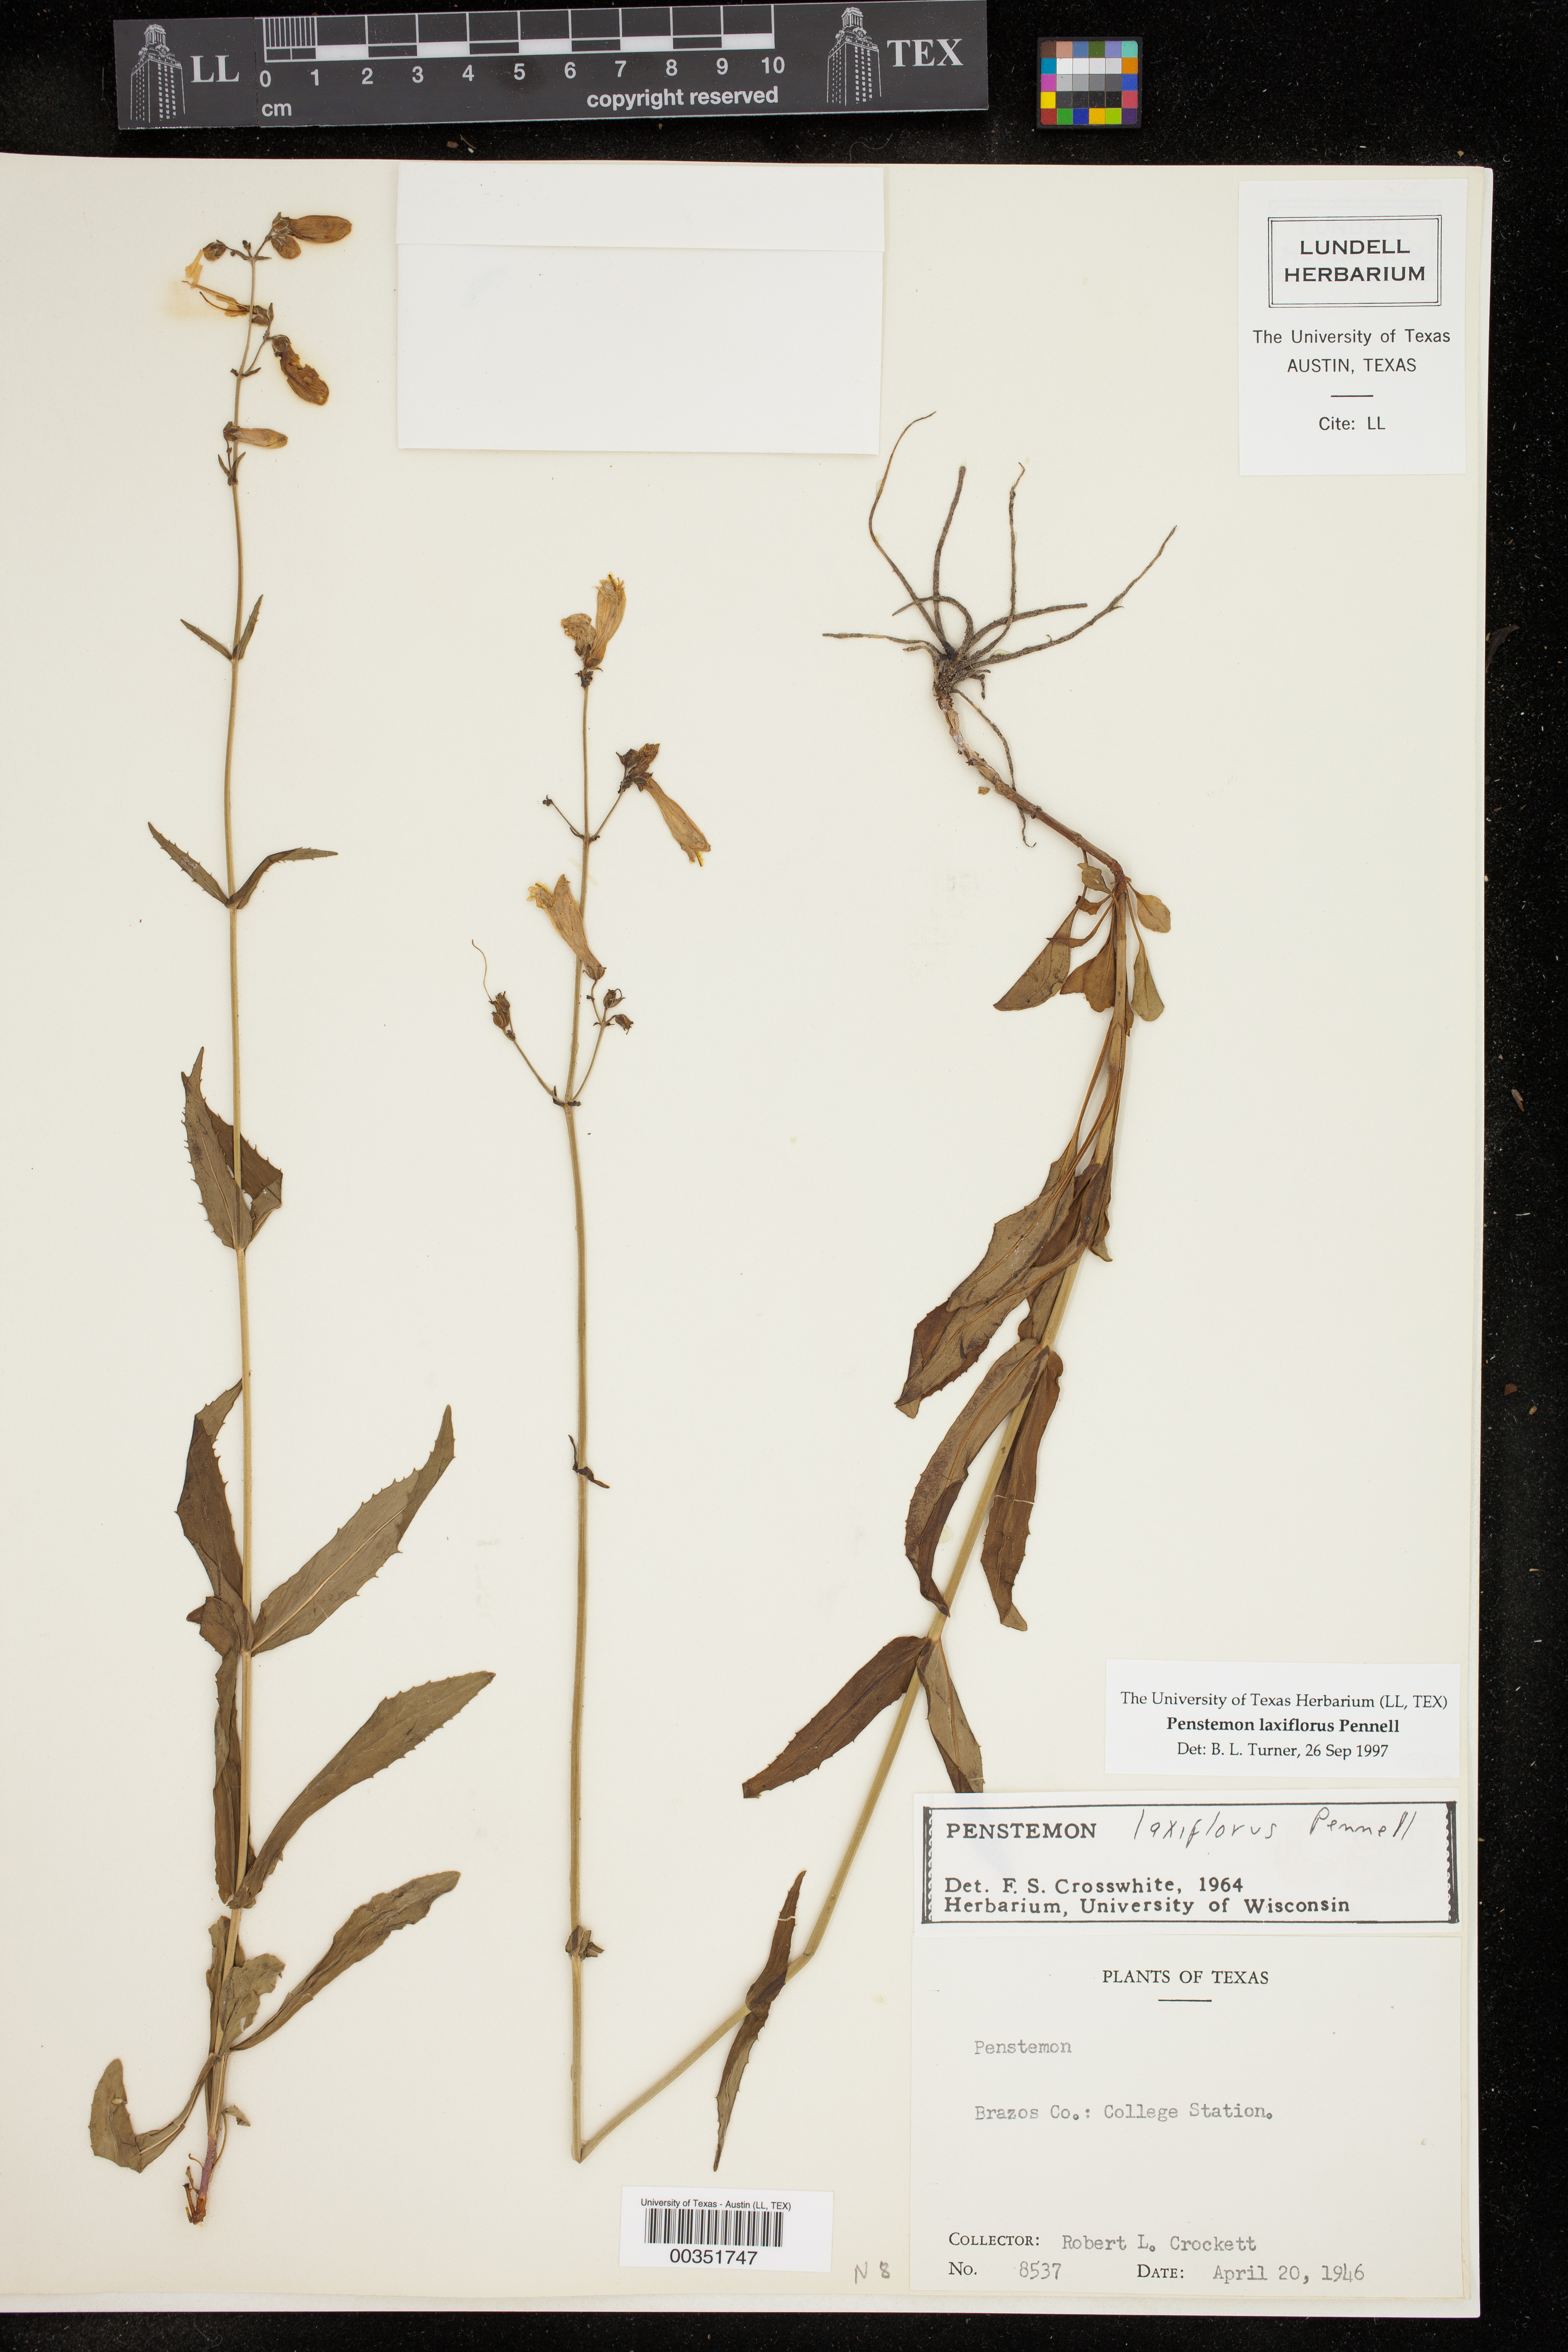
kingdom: Plantae
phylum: Tracheophyta
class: Magnoliopsida
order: Lamiales
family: Plantaginaceae
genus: Penstemon
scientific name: Penstemon laxiflorus
